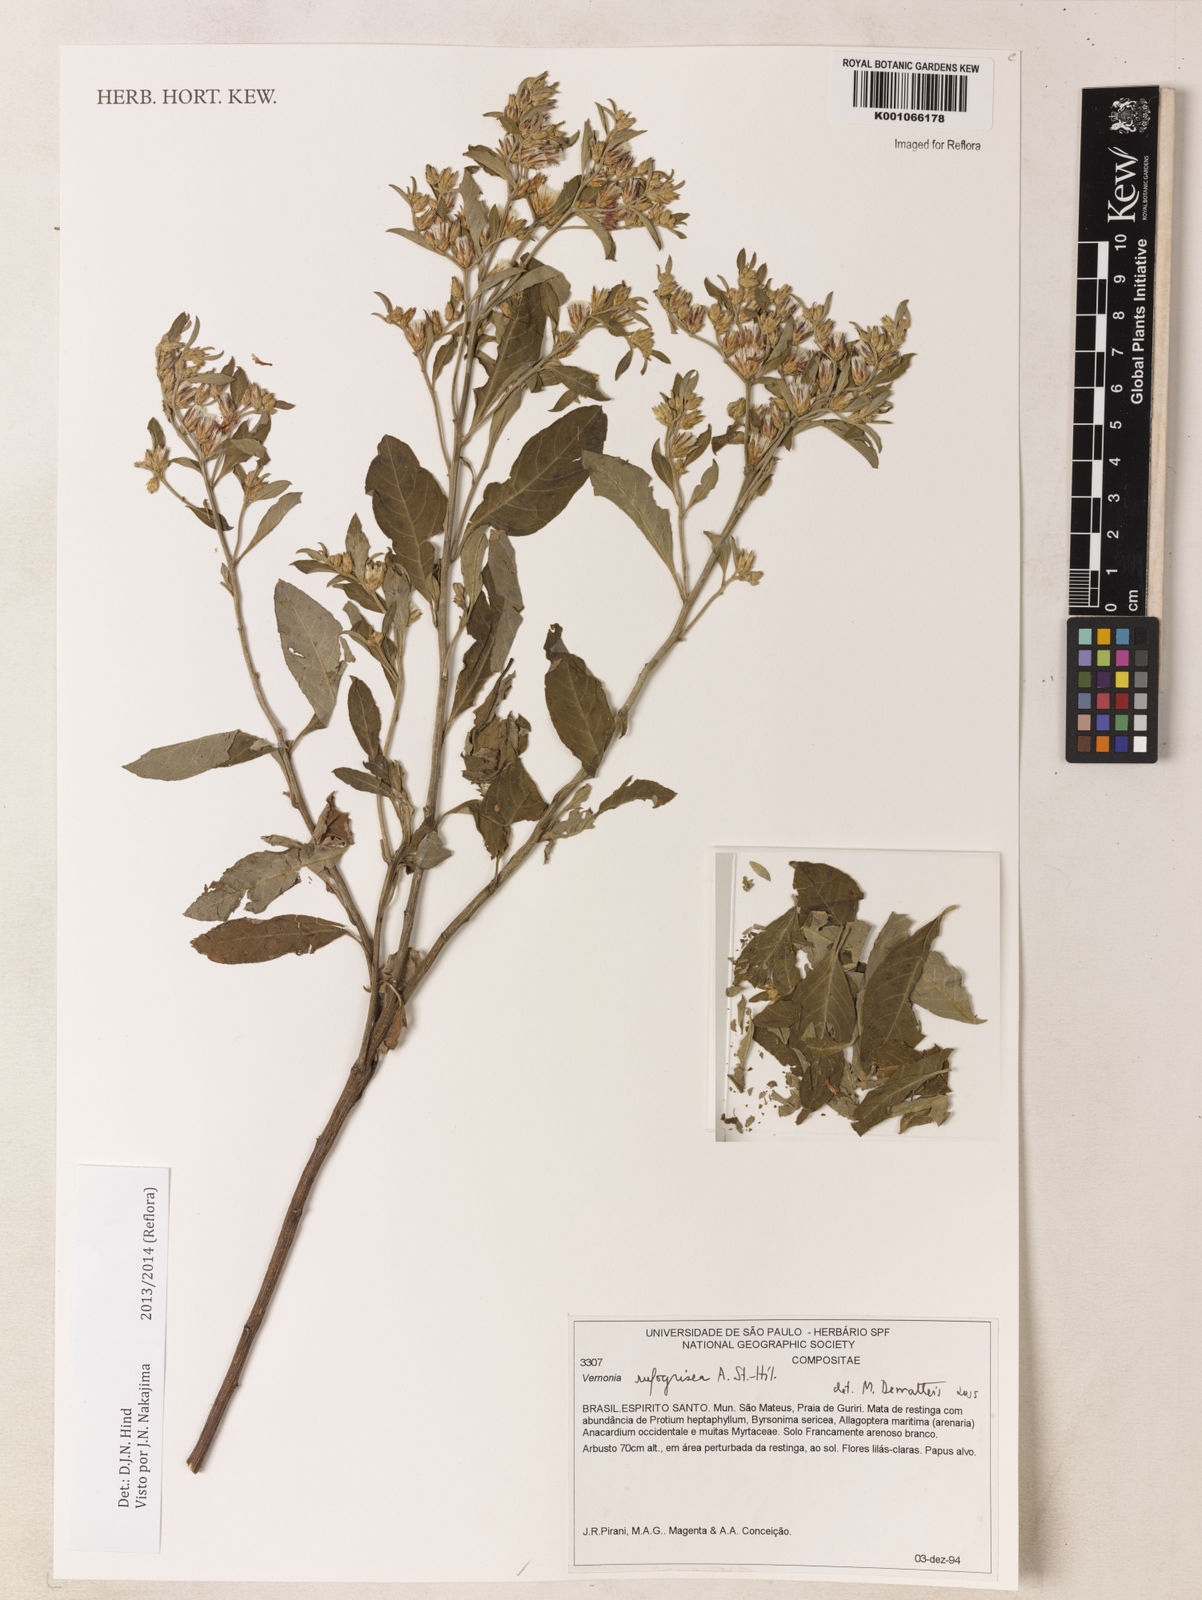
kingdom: Plantae
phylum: Tracheophyta
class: Magnoliopsida
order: Asterales
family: Asteraceae
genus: Lepidaploa
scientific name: Lepidaploa rufogrisea
